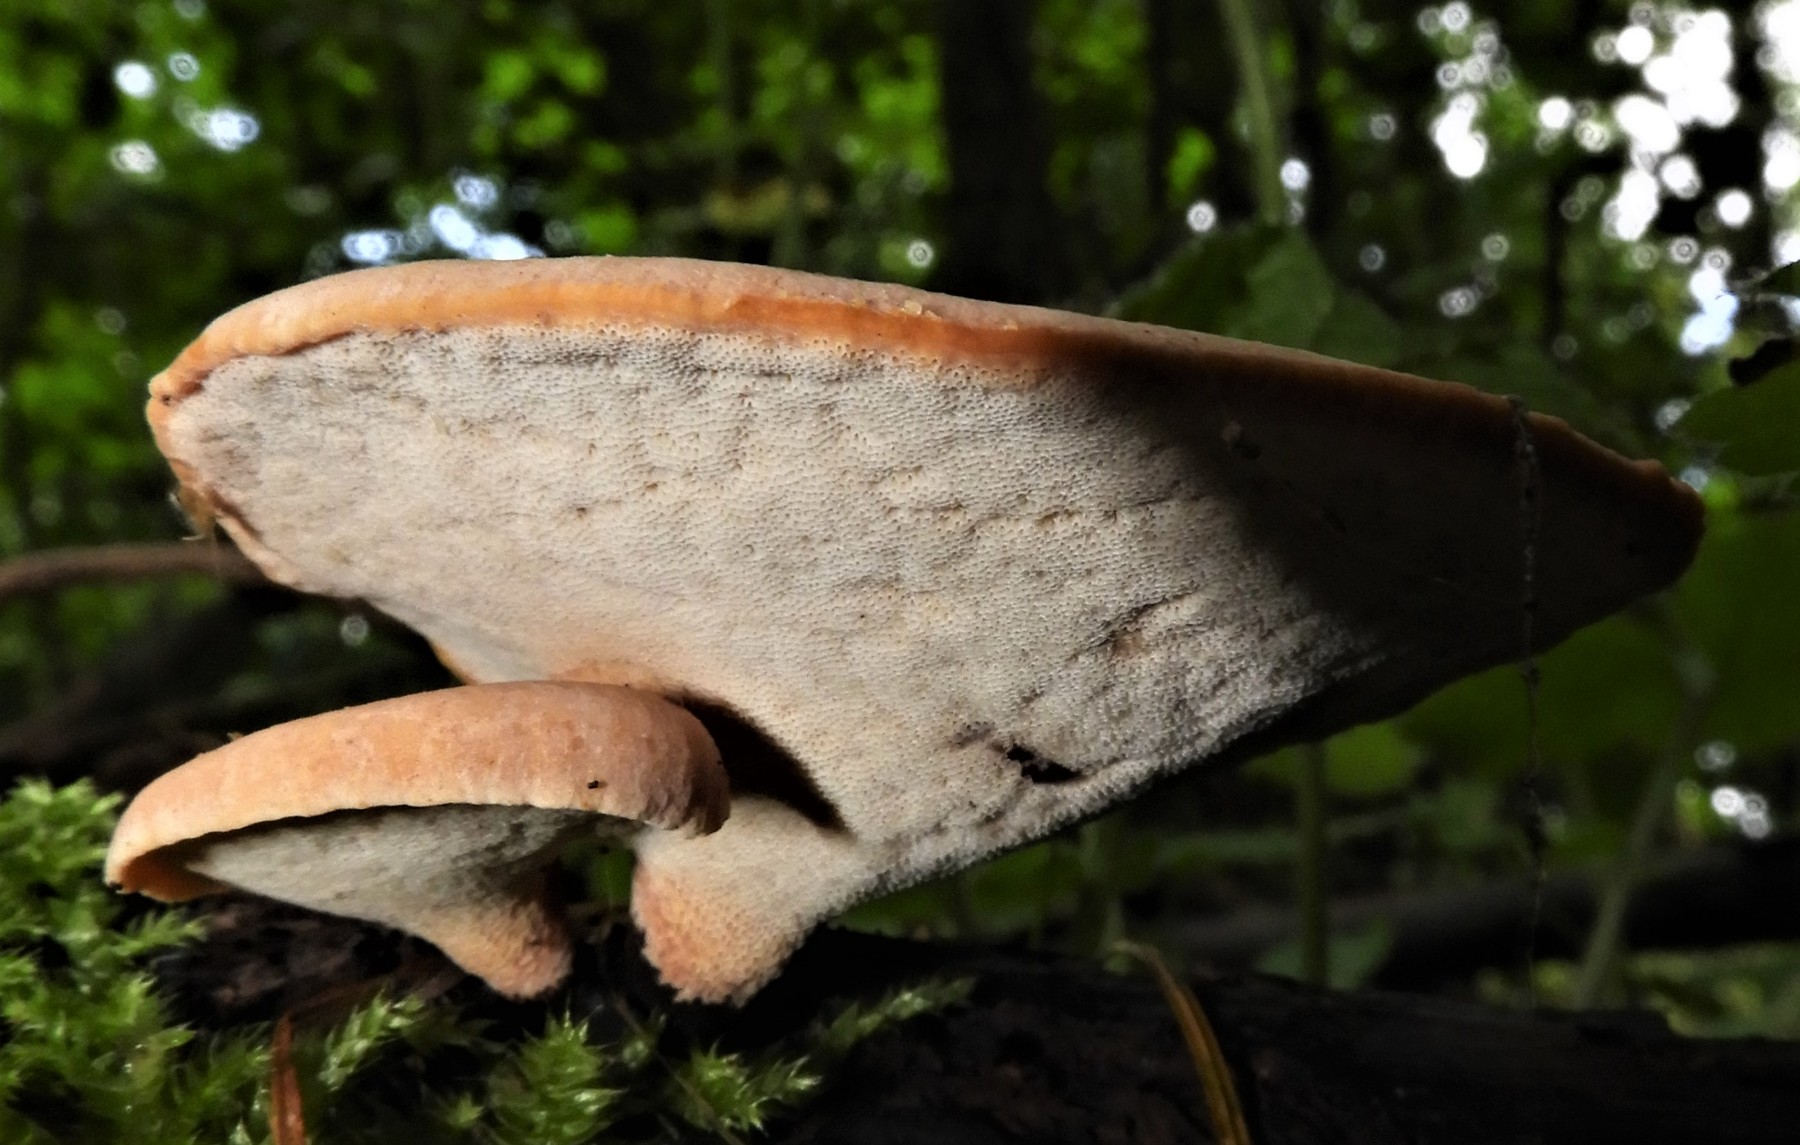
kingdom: Fungi
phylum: Basidiomycota
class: Agaricomycetes
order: Polyporales
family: Polyporaceae
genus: Cerioporus
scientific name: Cerioporus varius
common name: foranderlig stilkporesvamp
